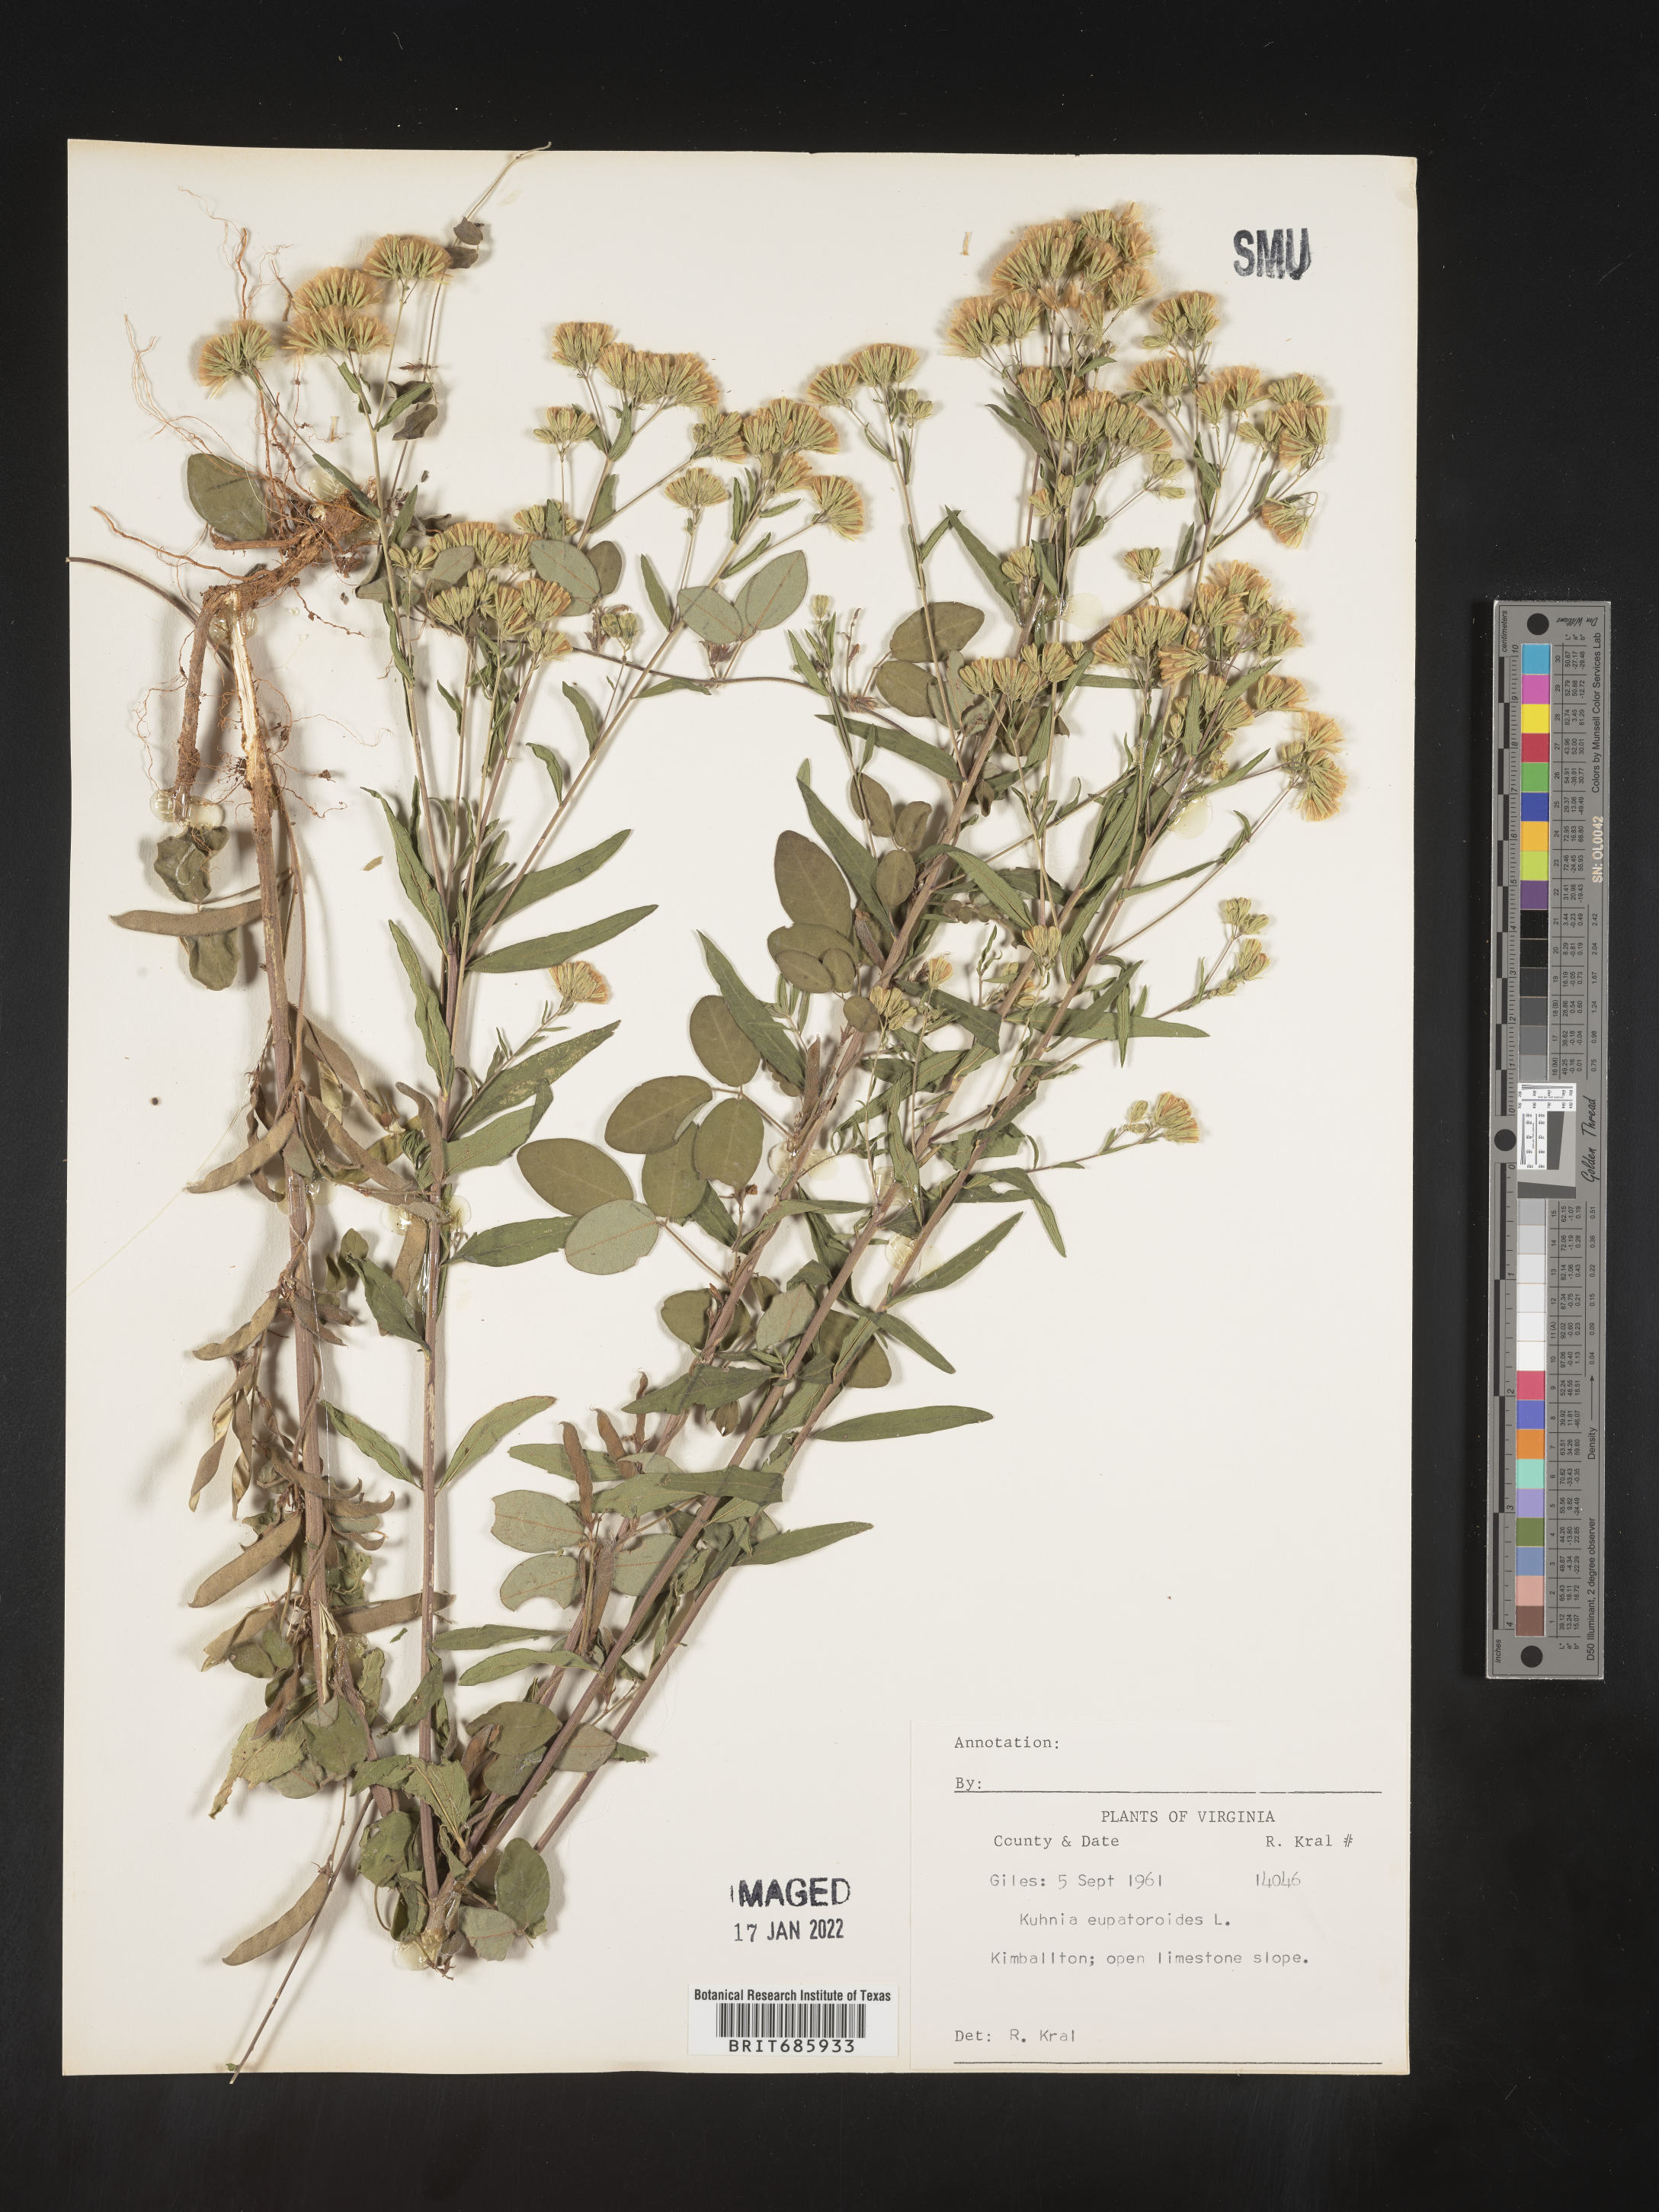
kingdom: Plantae
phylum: Tracheophyta
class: Magnoliopsida
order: Asterales
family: Asteraceae
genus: Brickellia
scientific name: Brickellia eupatorioides
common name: False boneset
